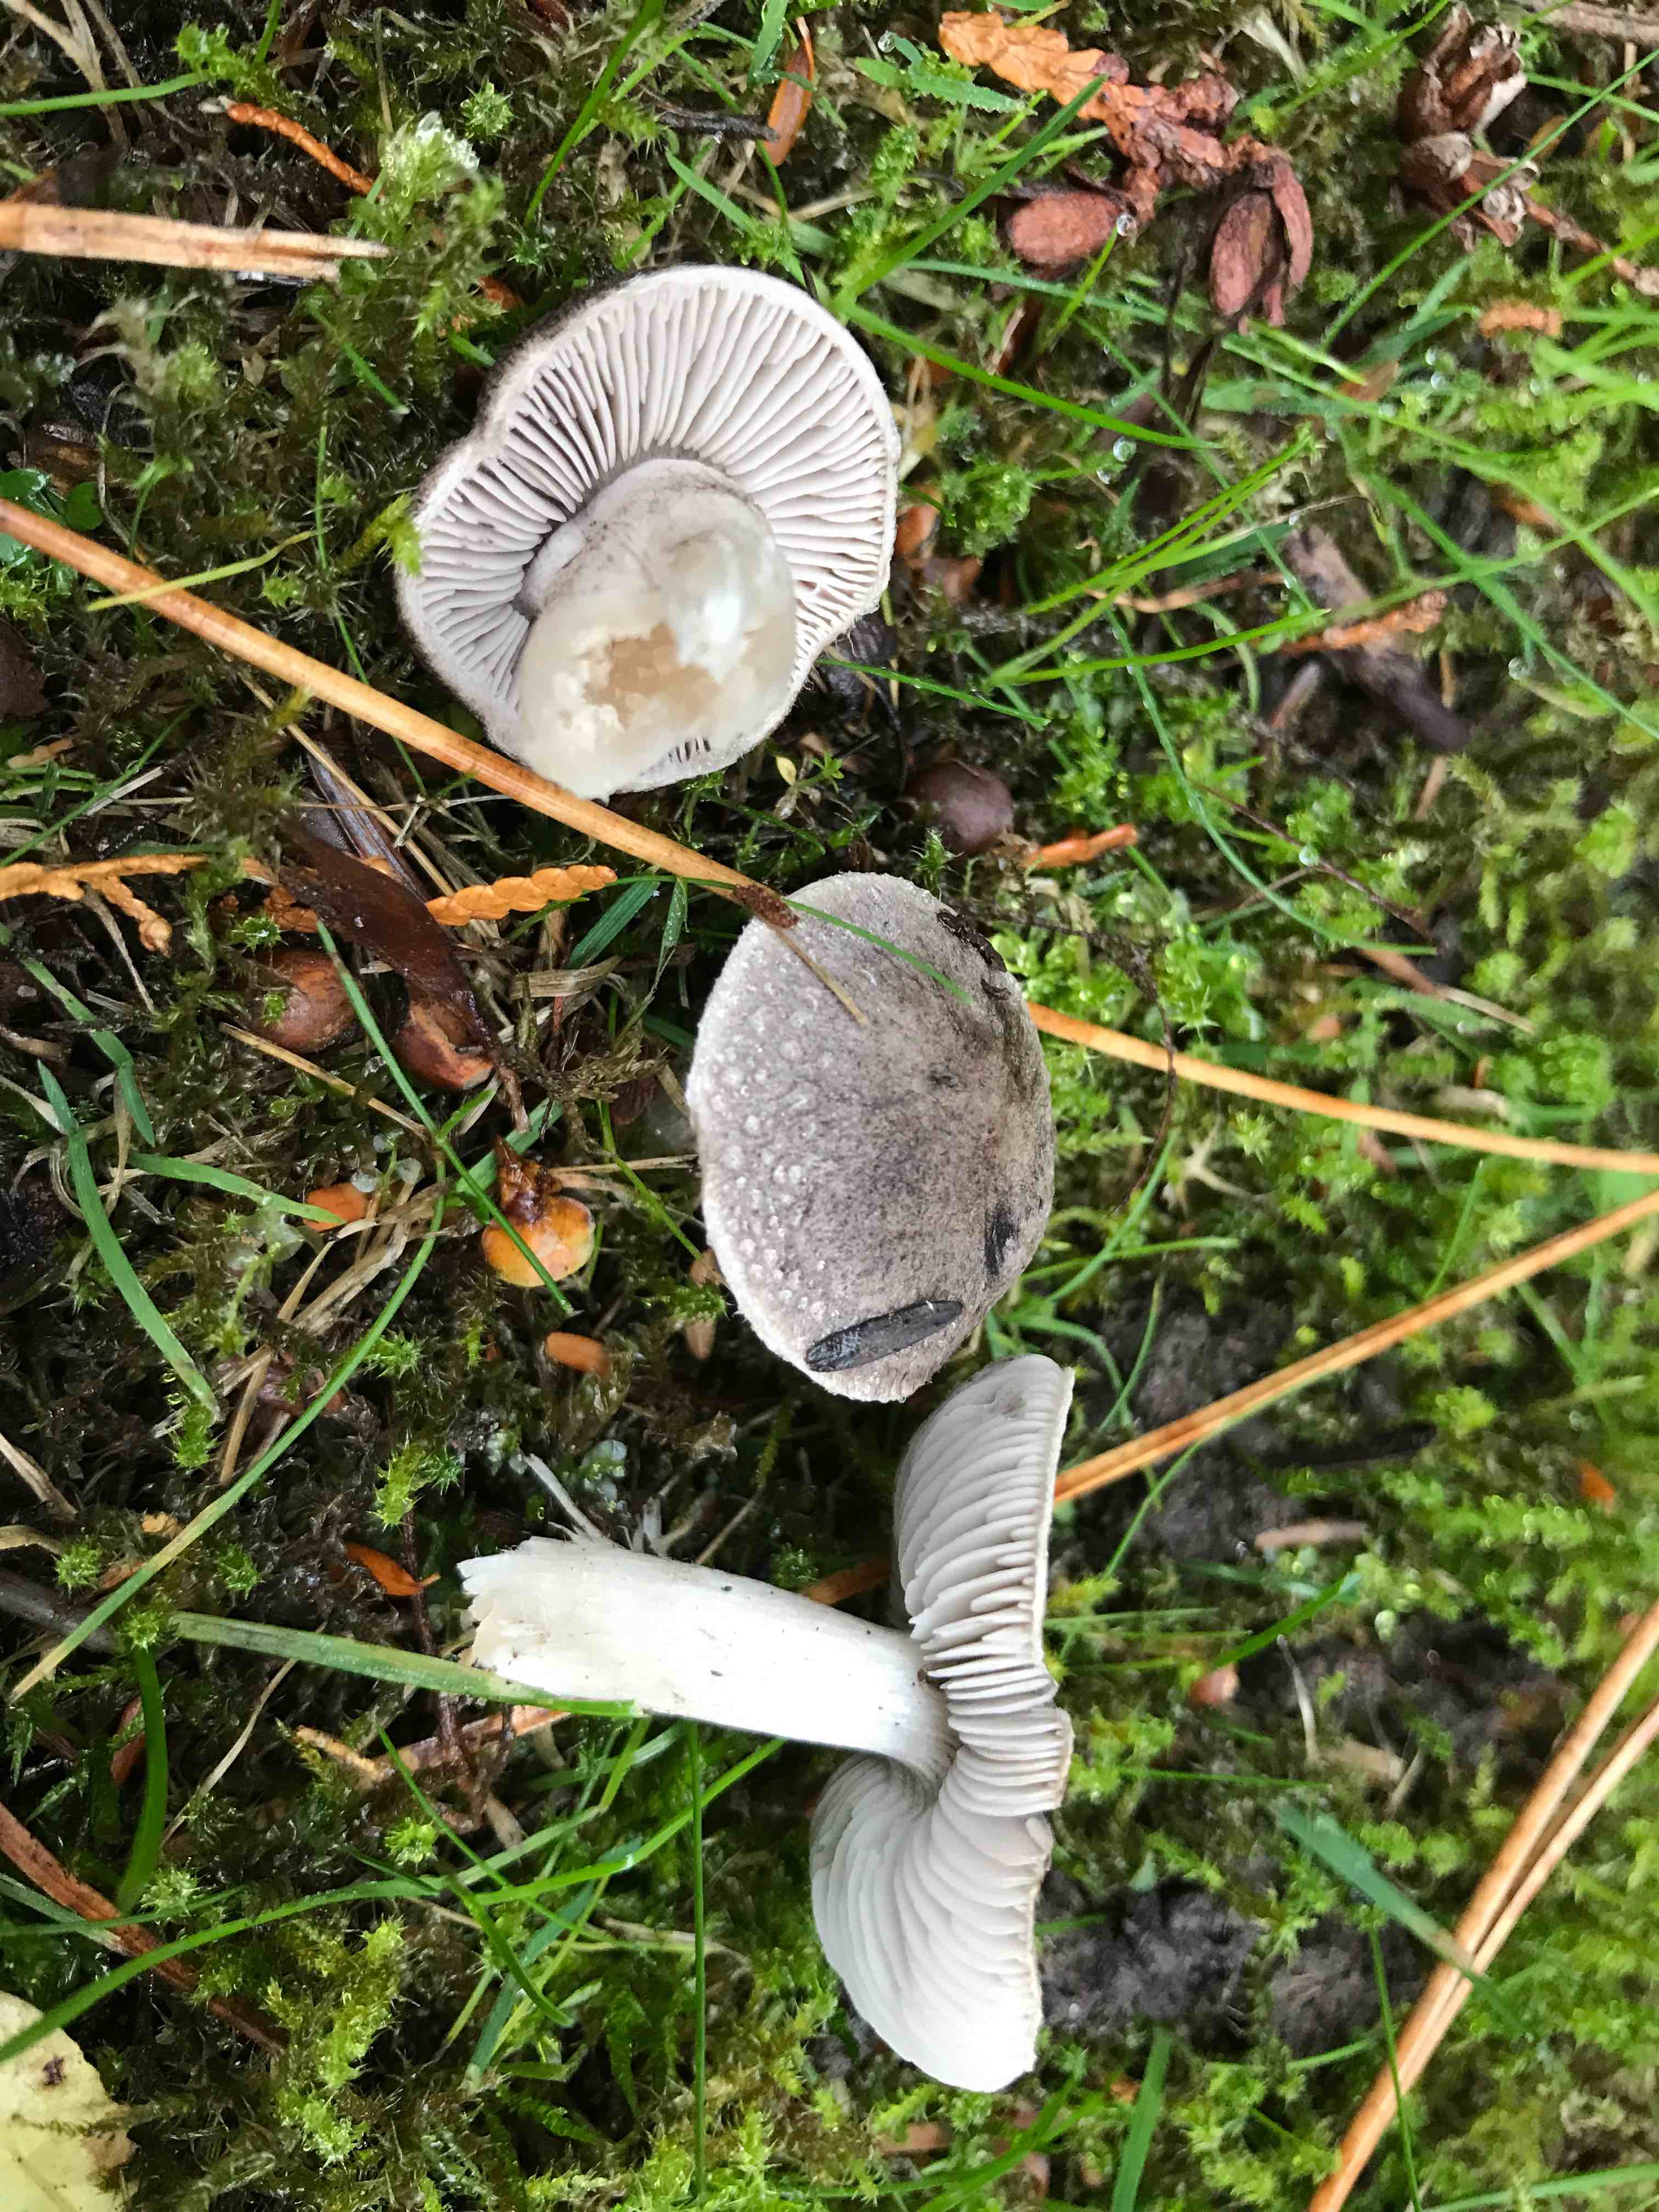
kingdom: Fungi
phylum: Basidiomycota
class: Agaricomycetes
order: Agaricales
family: Tricholomataceae
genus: Tricholoma
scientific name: Tricholoma
